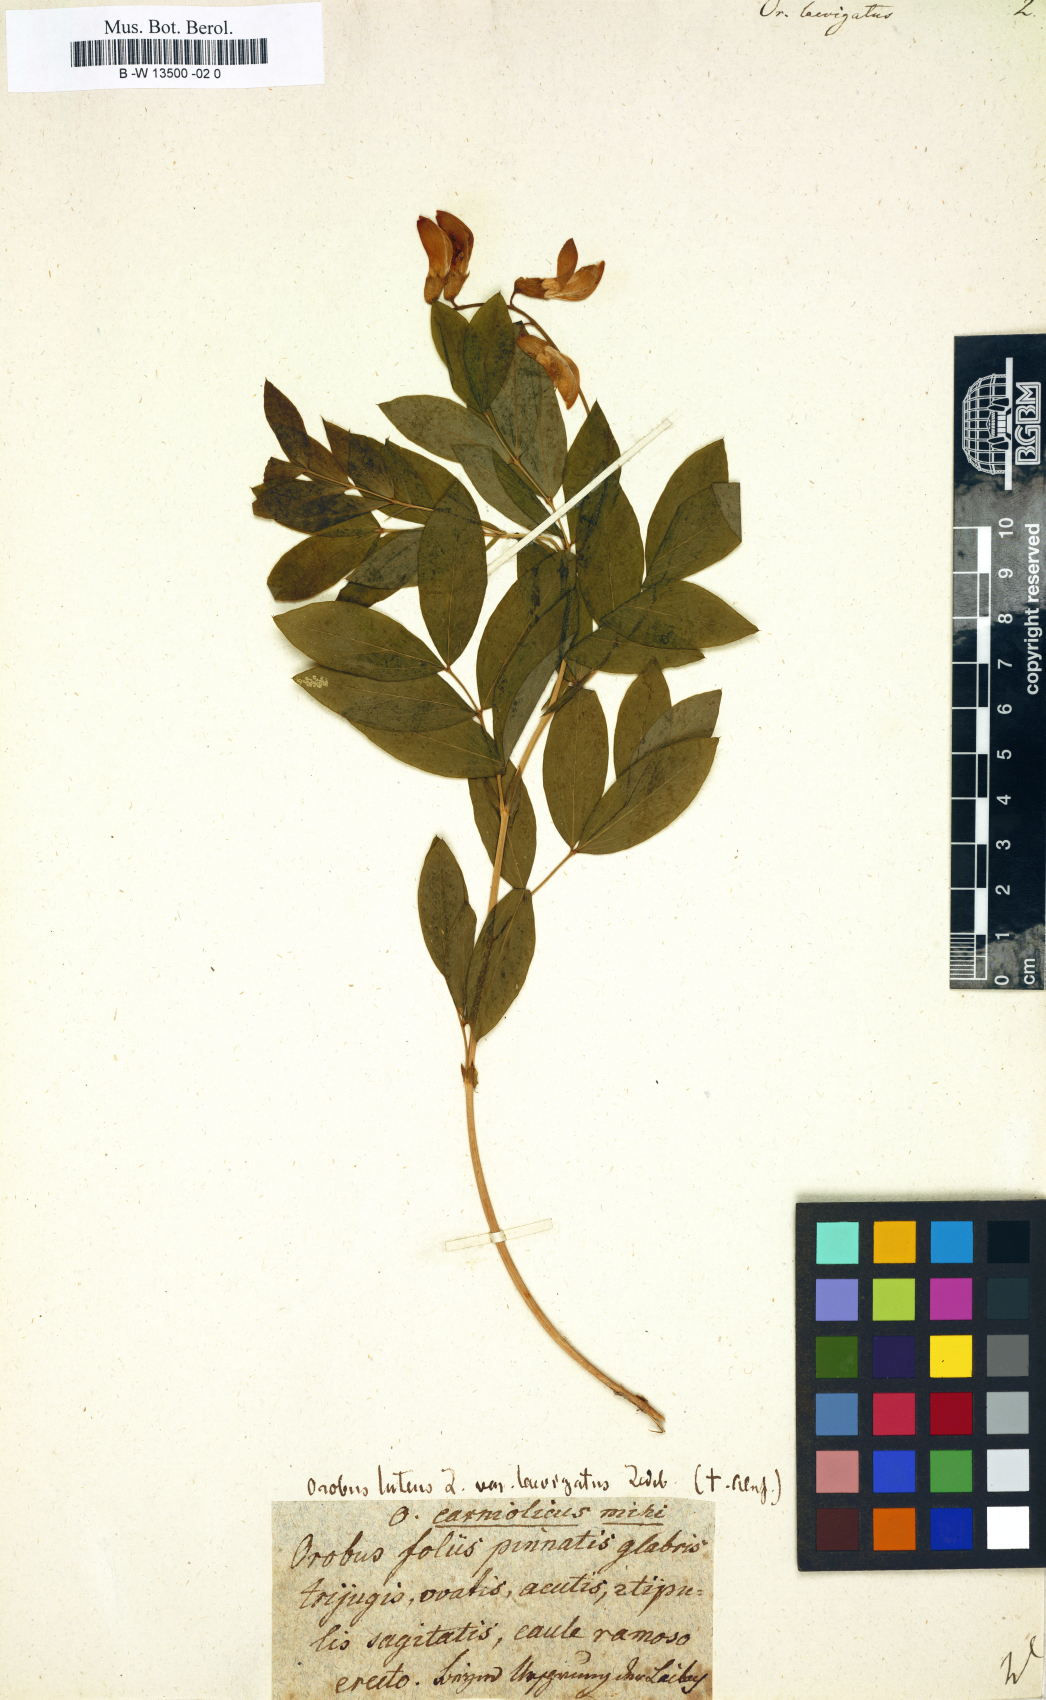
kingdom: Plantae
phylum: Tracheophyta
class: Magnoliopsida
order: Fabales
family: Fabaceae
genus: Lathyrus
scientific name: Lathyrus laevigatus
